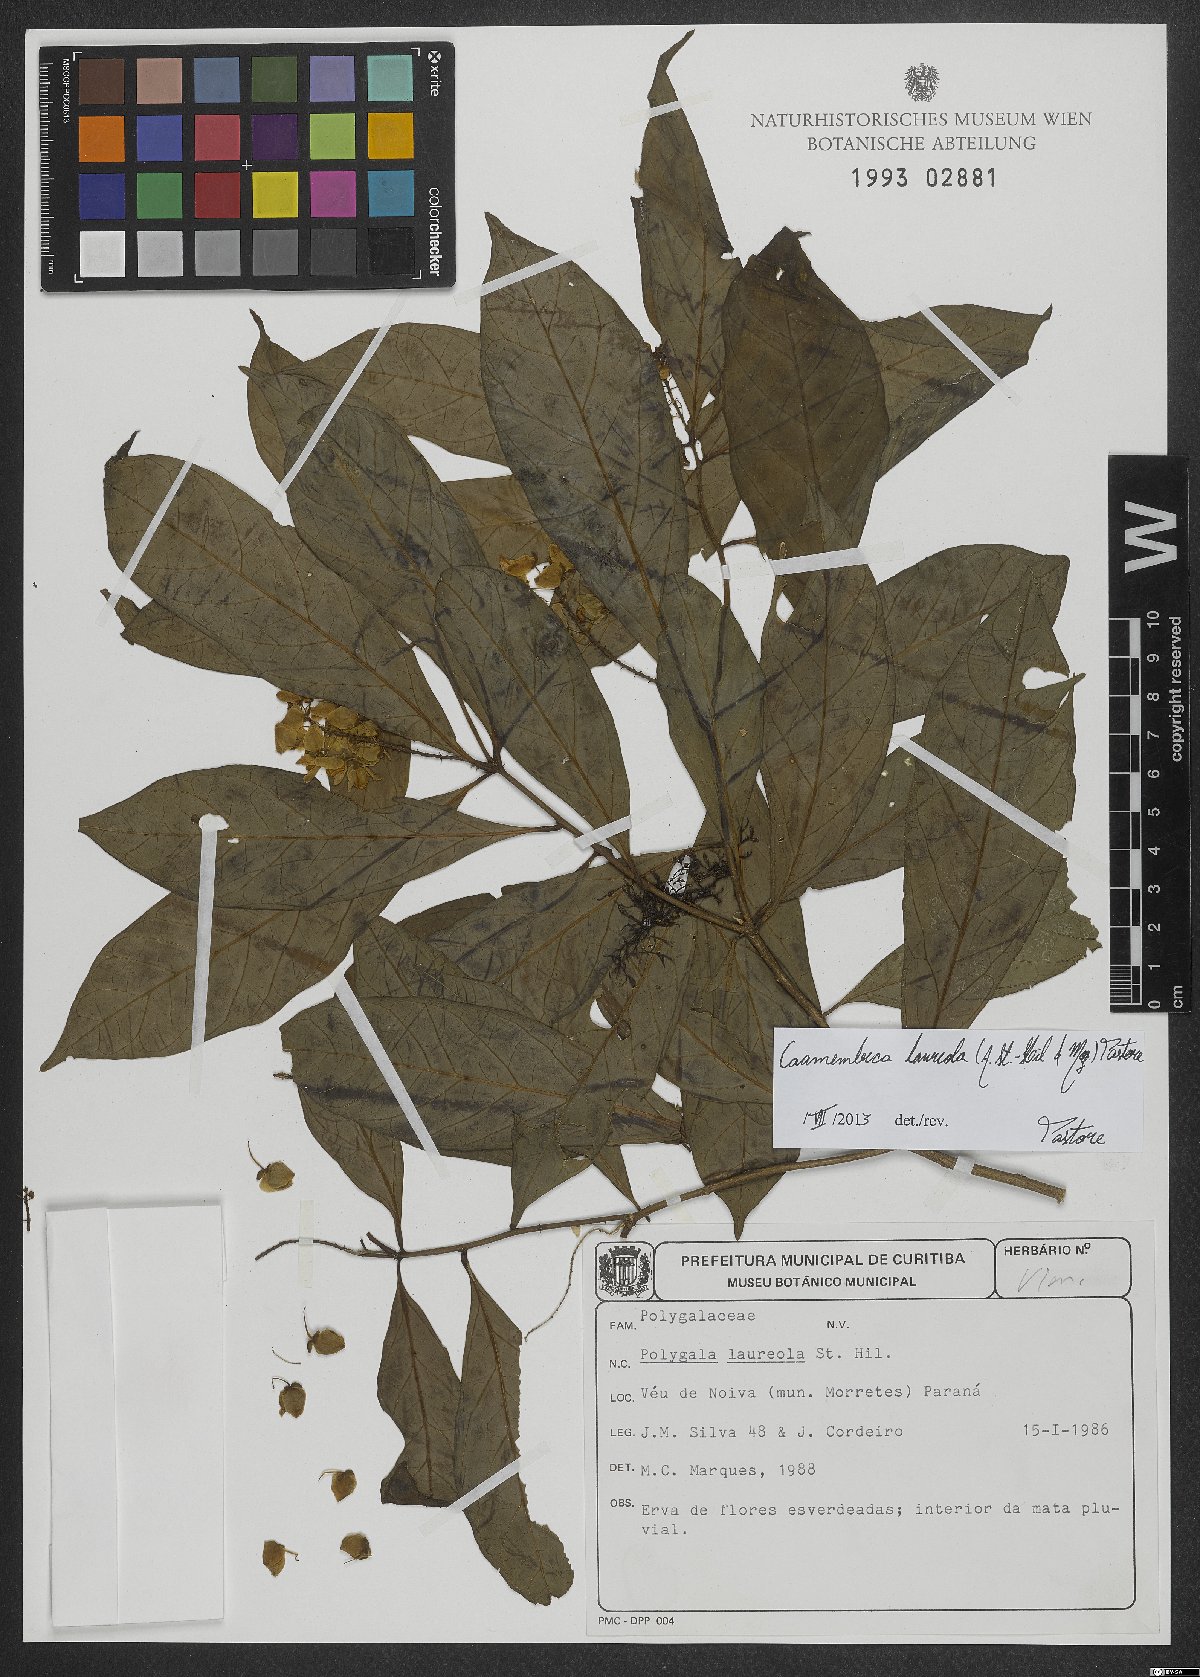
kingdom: Plantae
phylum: Tracheophyta
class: Magnoliopsida
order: Fabales
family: Polygalaceae
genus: Caamembeca
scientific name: Caamembeca salicifolia
